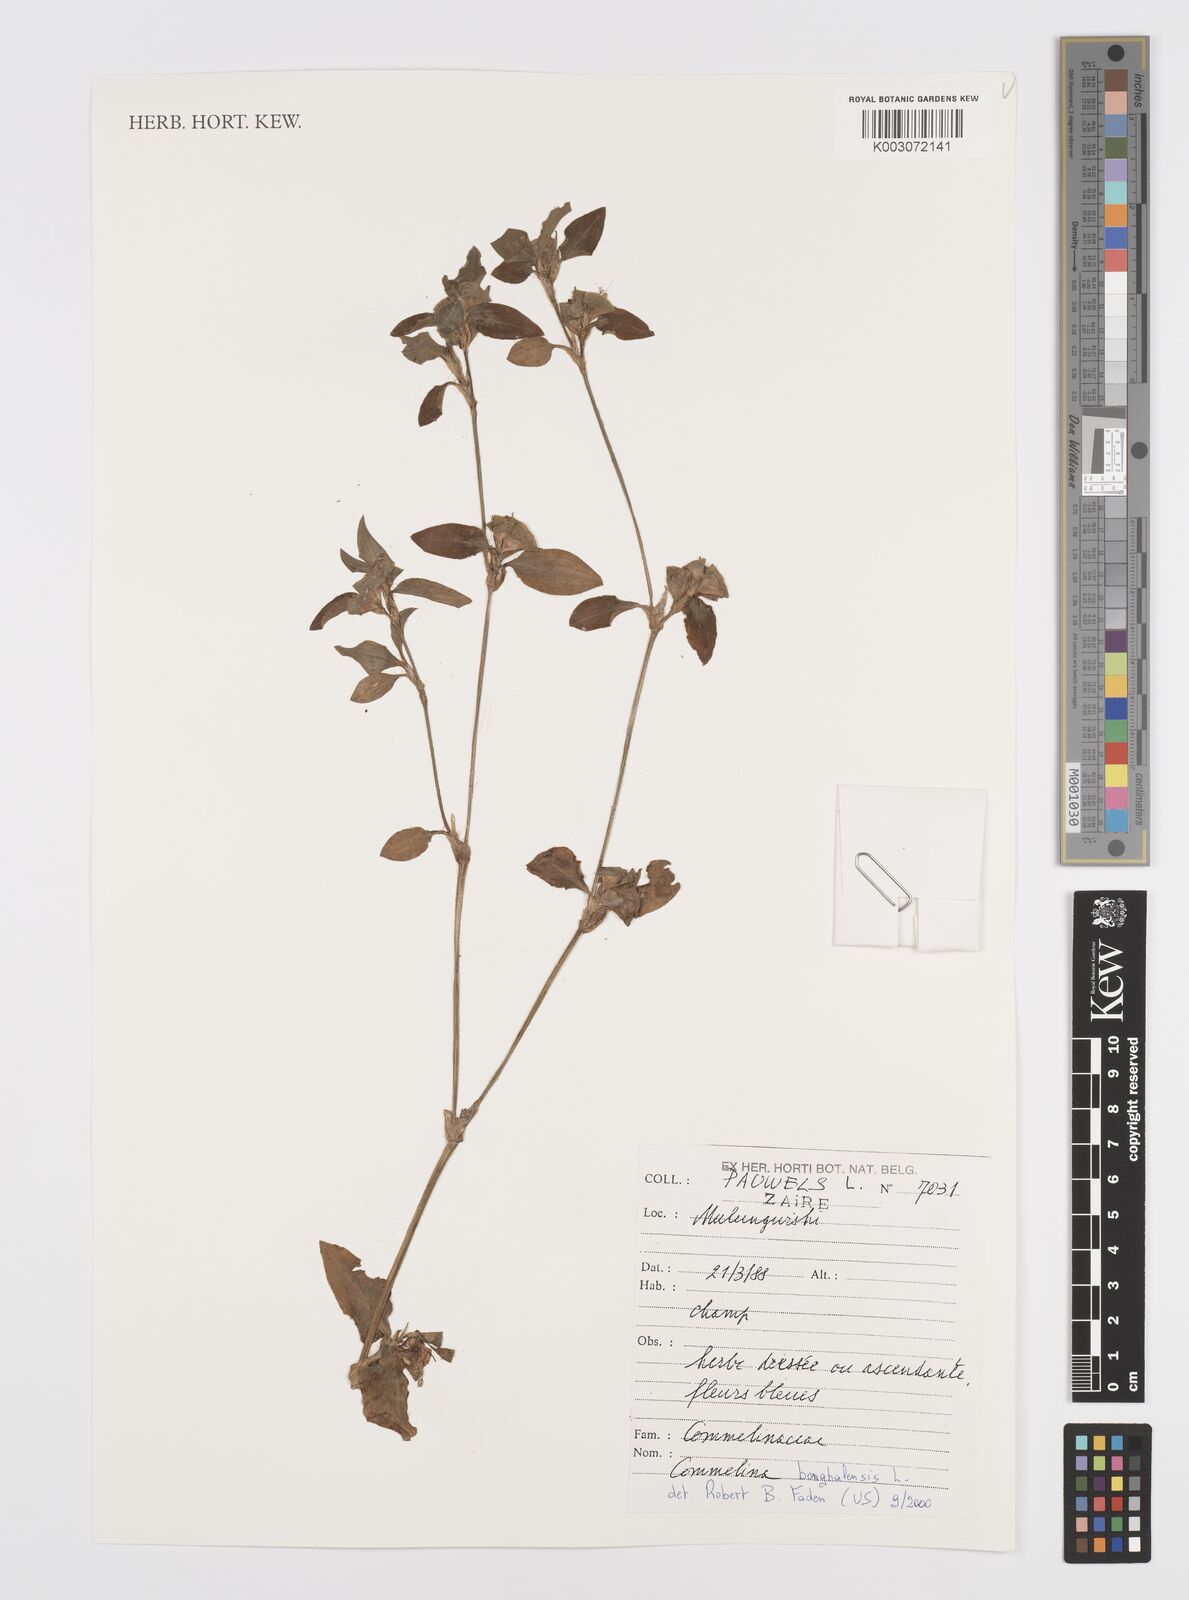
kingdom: Plantae
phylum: Tracheophyta
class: Liliopsida
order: Commelinales
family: Commelinaceae
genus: Commelina
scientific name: Commelina benghalensis
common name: Jio
